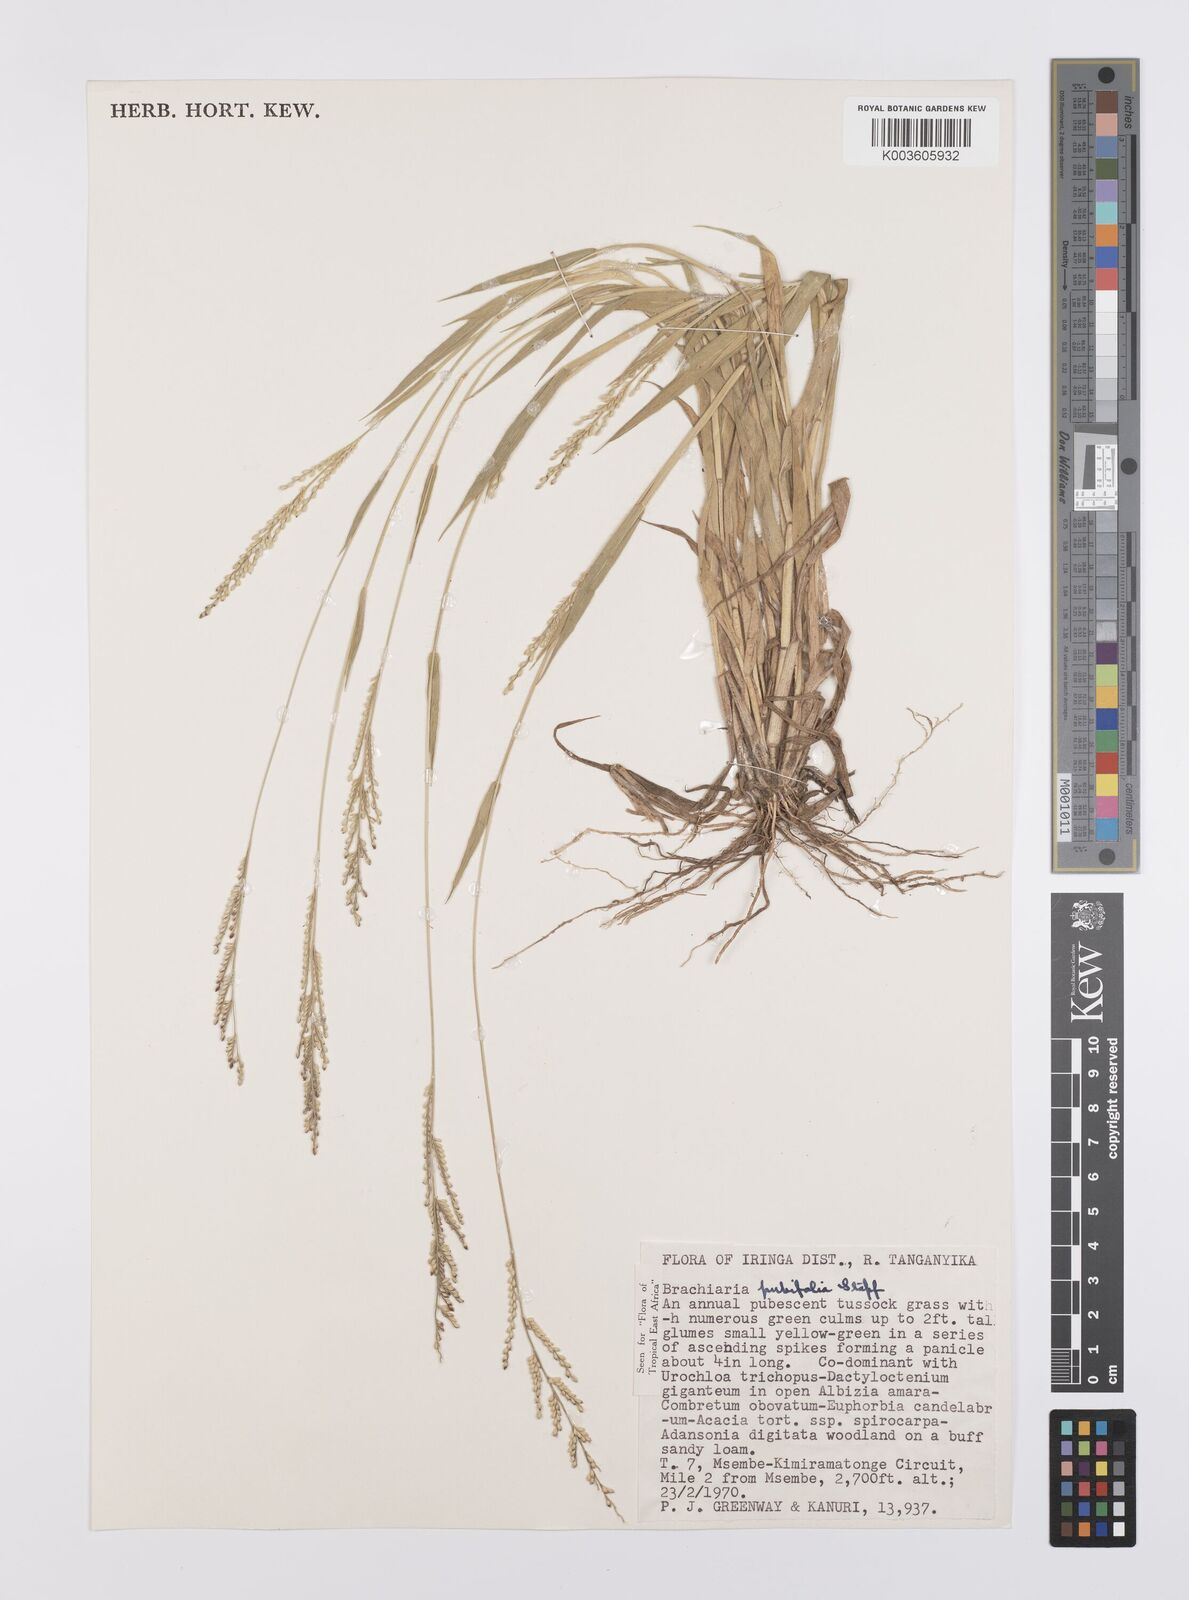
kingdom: Plantae
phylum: Tracheophyta
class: Liliopsida
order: Poales
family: Poaceae
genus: Urochloa
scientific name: Urochloa xantholeuca
